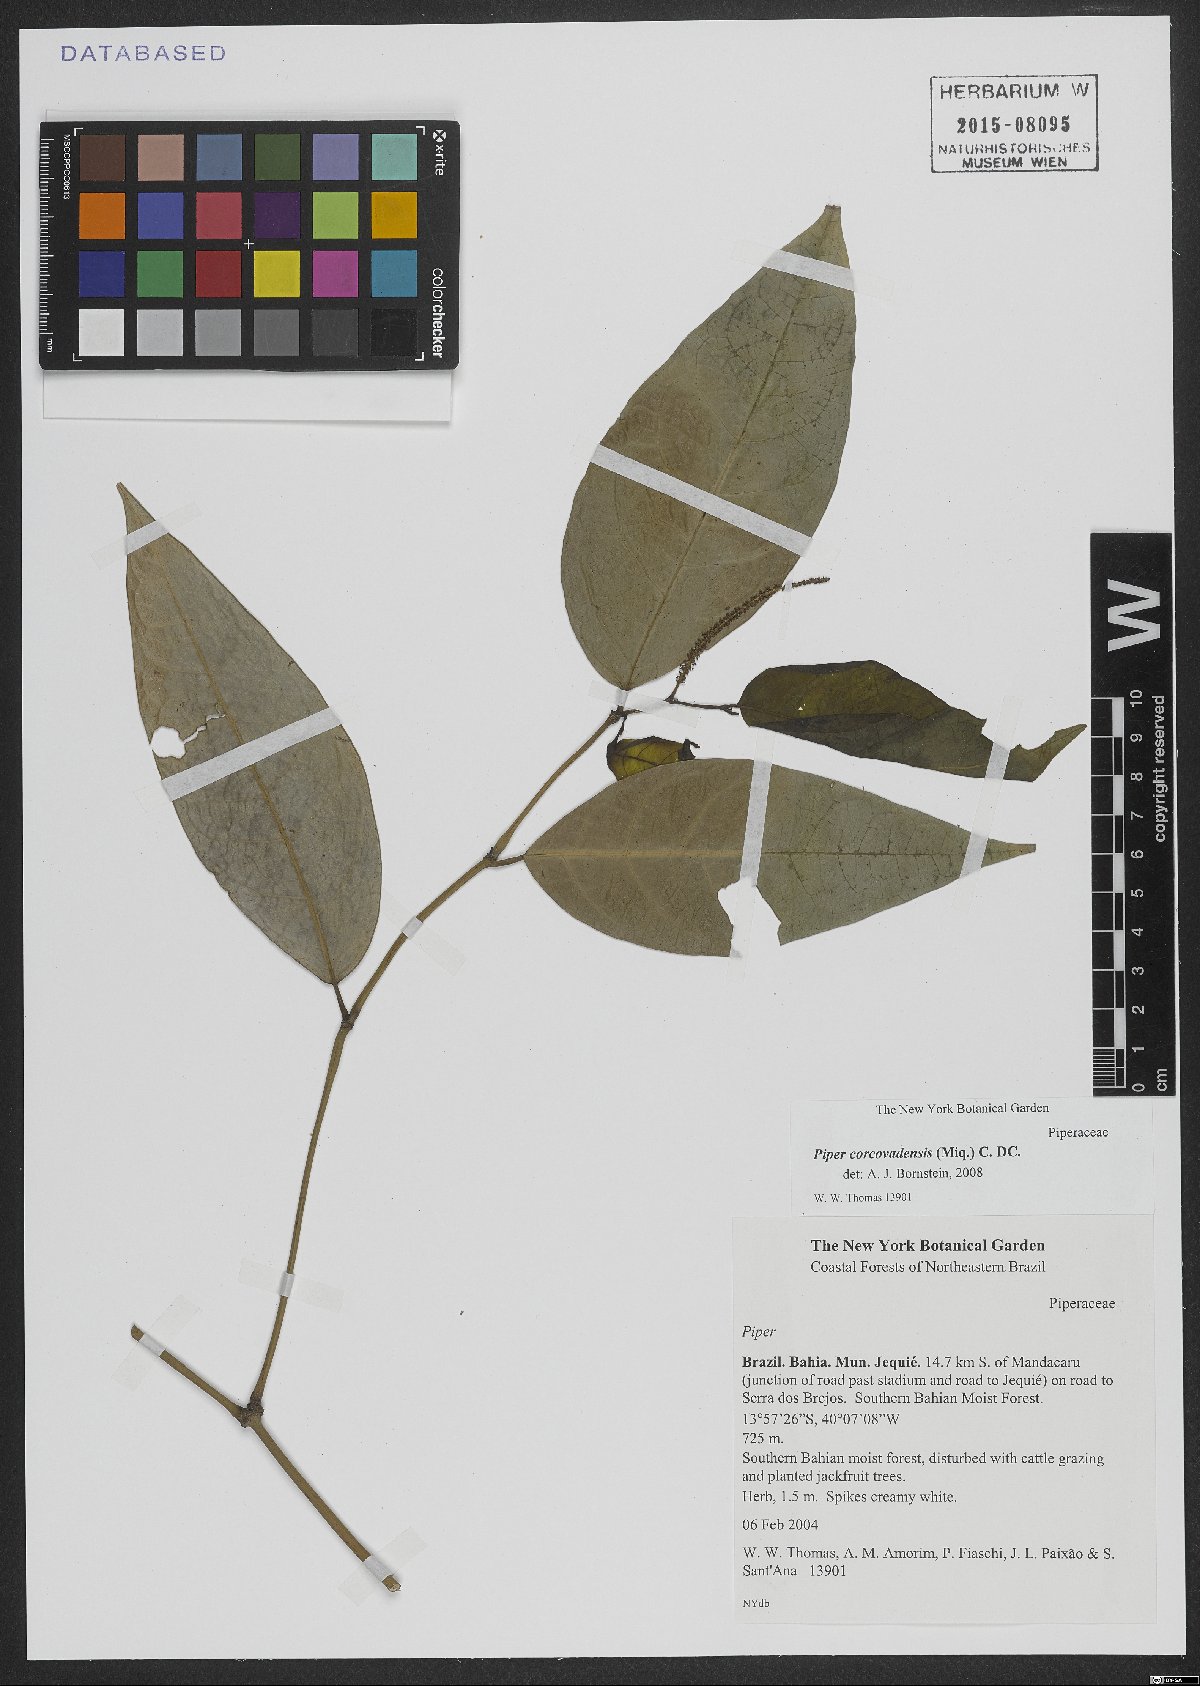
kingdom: Plantae
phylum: Tracheophyta
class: Magnoliopsida
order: Piperales
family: Piperaceae
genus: Piper
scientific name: Piper corcovadense
